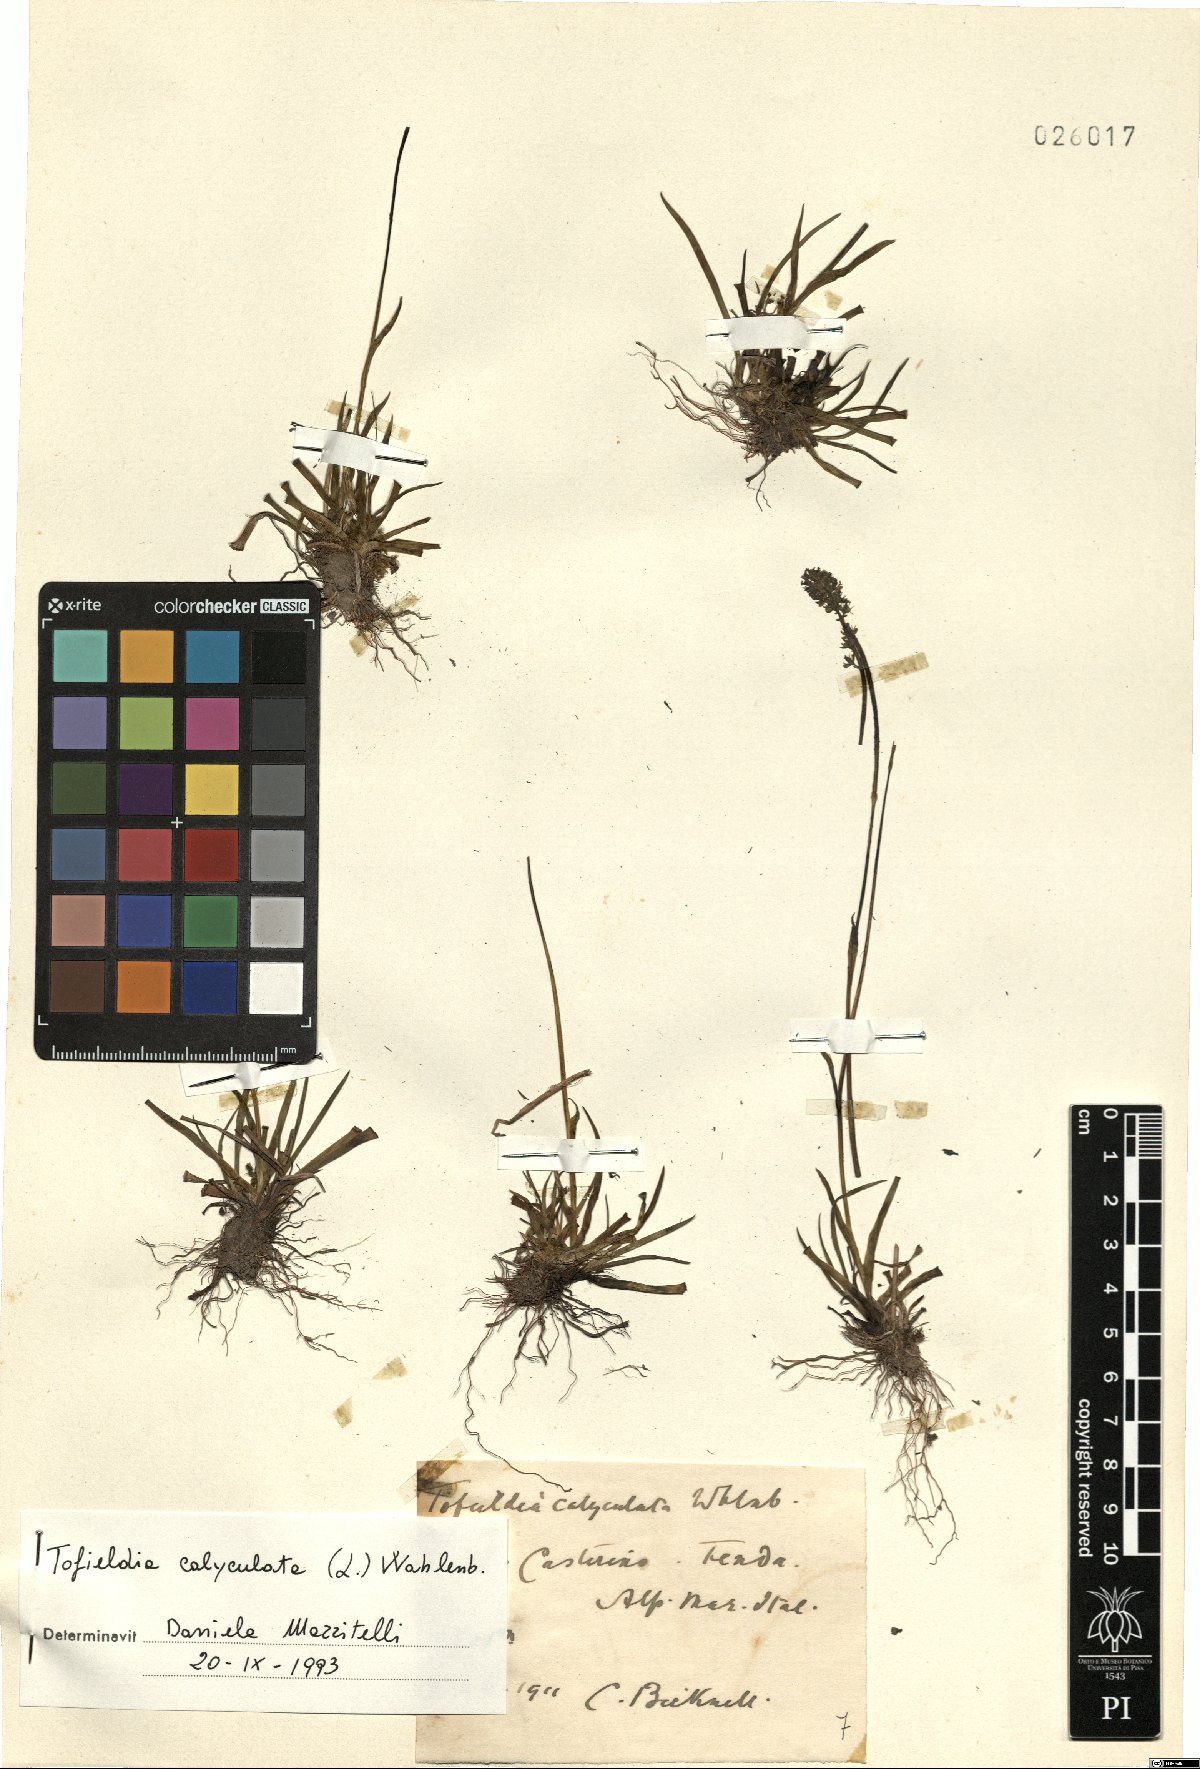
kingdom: Plantae
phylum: Tracheophyta
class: Liliopsida
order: Alismatales
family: Tofieldiaceae
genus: Tofieldia
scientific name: Tofieldia calyculata
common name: German-asphodel
